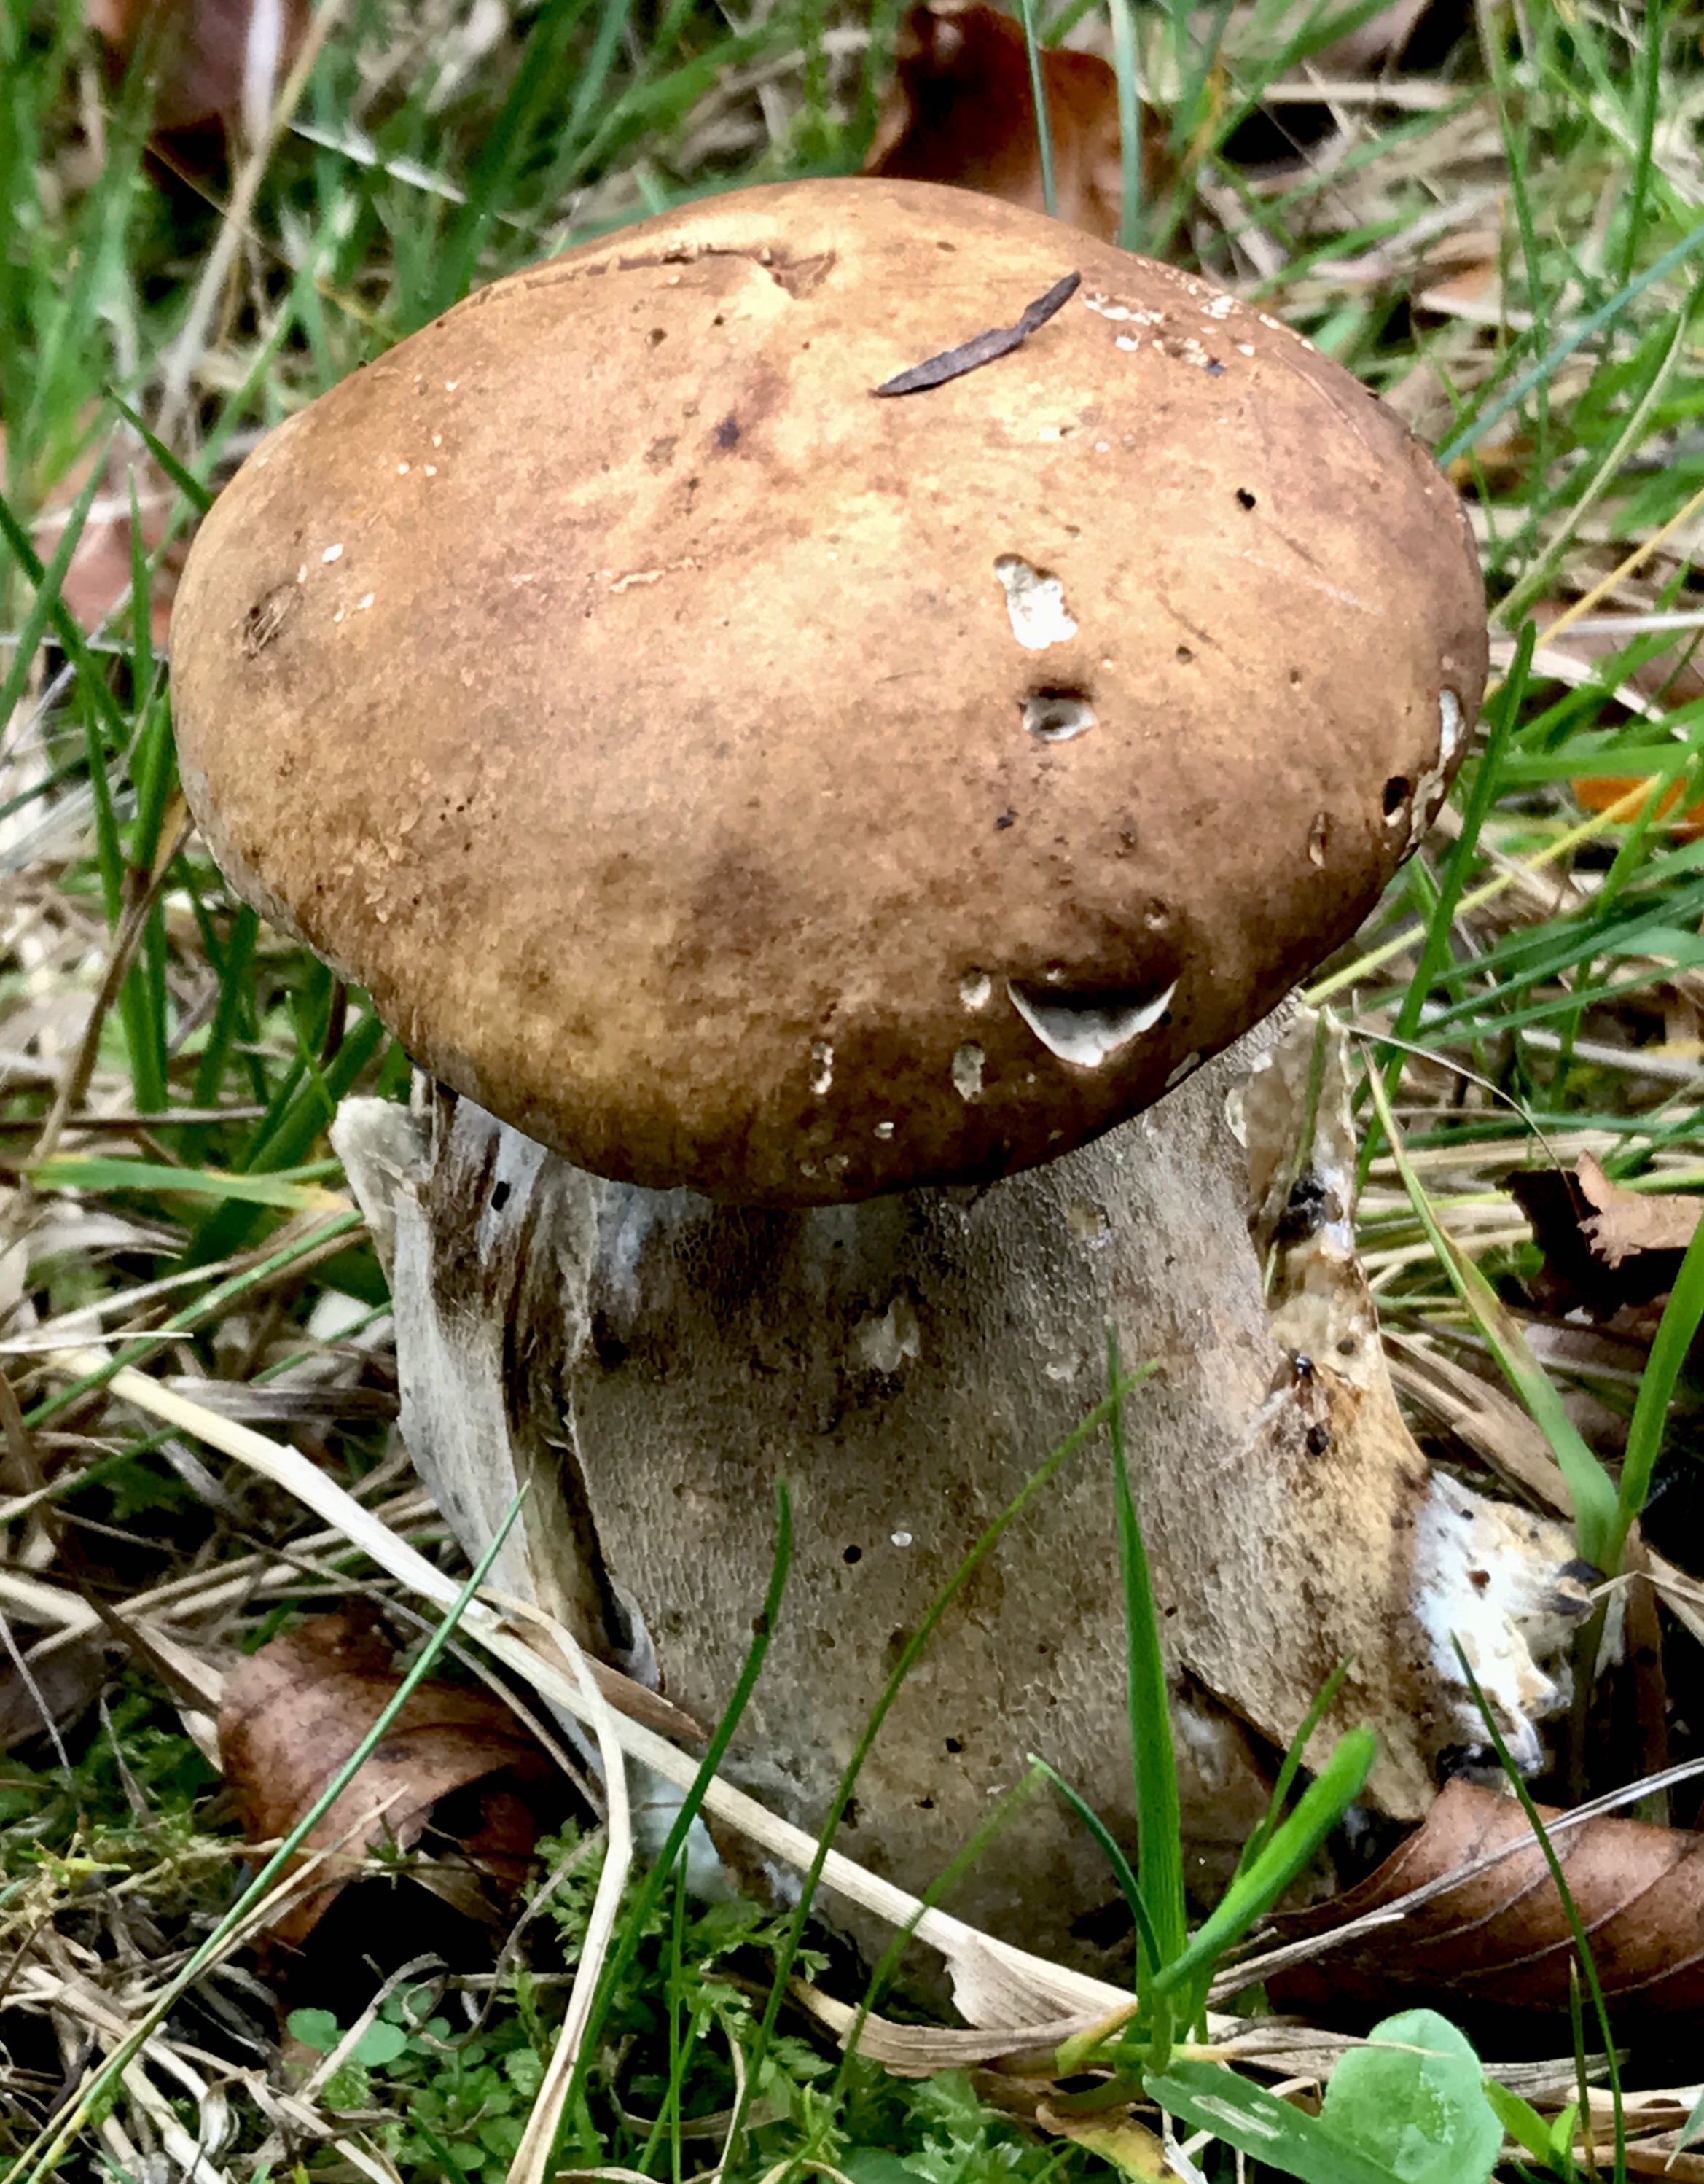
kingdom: Fungi
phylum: Basidiomycota
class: Agaricomycetes
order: Boletales
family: Boletaceae
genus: Boletus
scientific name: Boletus edulis
